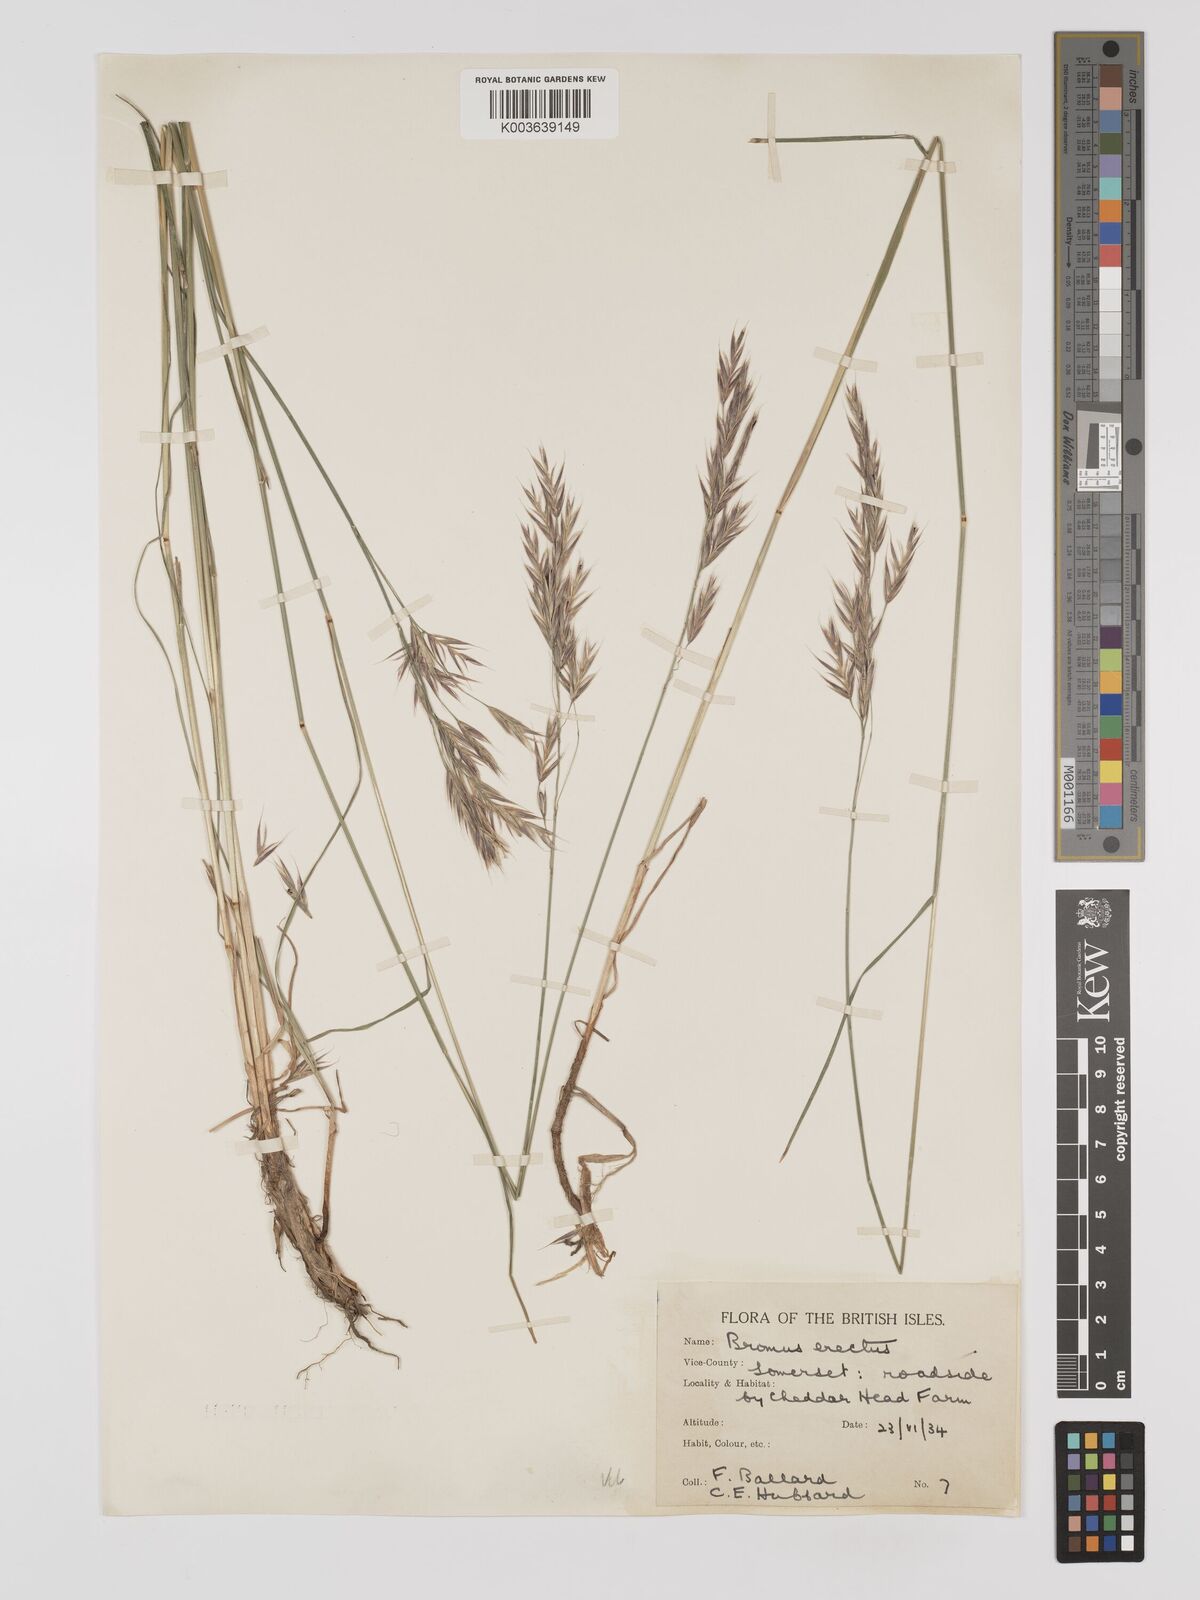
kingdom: Plantae
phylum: Tracheophyta
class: Liliopsida
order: Poales
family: Poaceae
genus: Bromus
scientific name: Bromus erectus
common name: Erect brome
